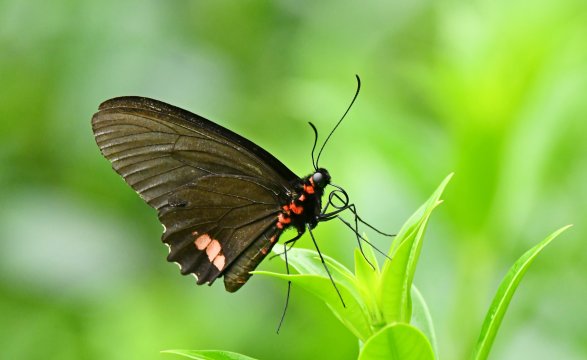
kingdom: Animalia
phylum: Arthropoda
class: Insecta
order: Lepidoptera
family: Papilionidae
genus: Parides
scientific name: Parides erithalion
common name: Variable Cattleheart
